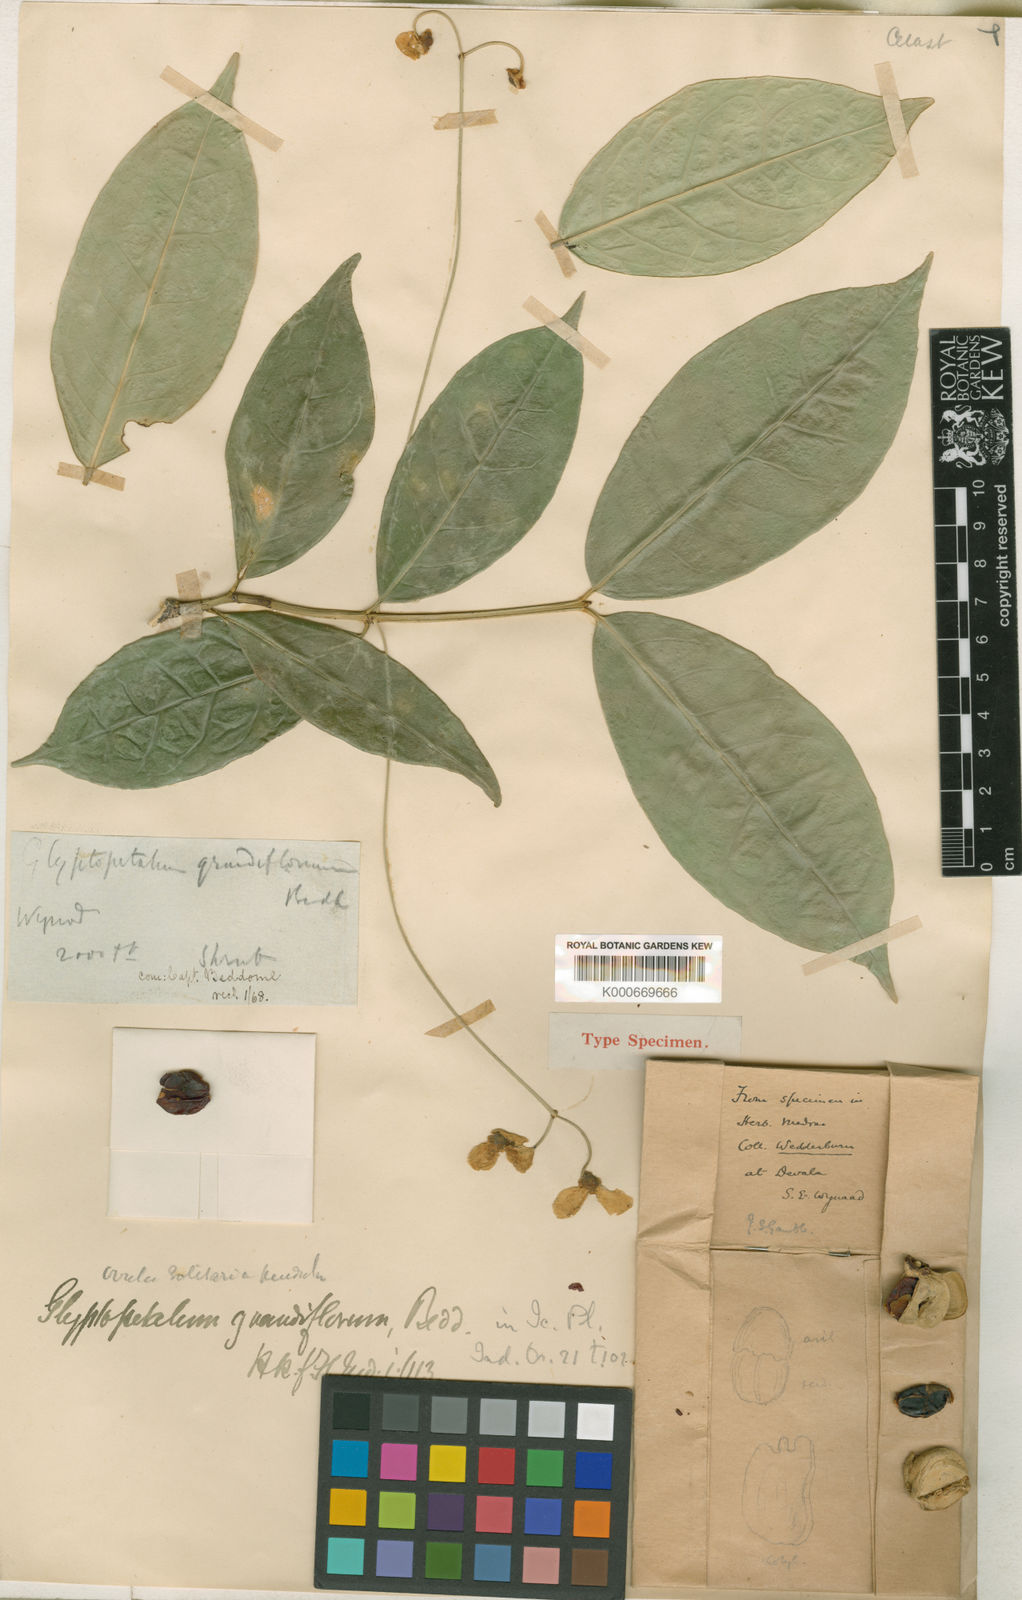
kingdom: Plantae
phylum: Tracheophyta
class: Magnoliopsida
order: Celastrales
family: Celastraceae
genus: Euonymus
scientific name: Euonymus grandiflorus
